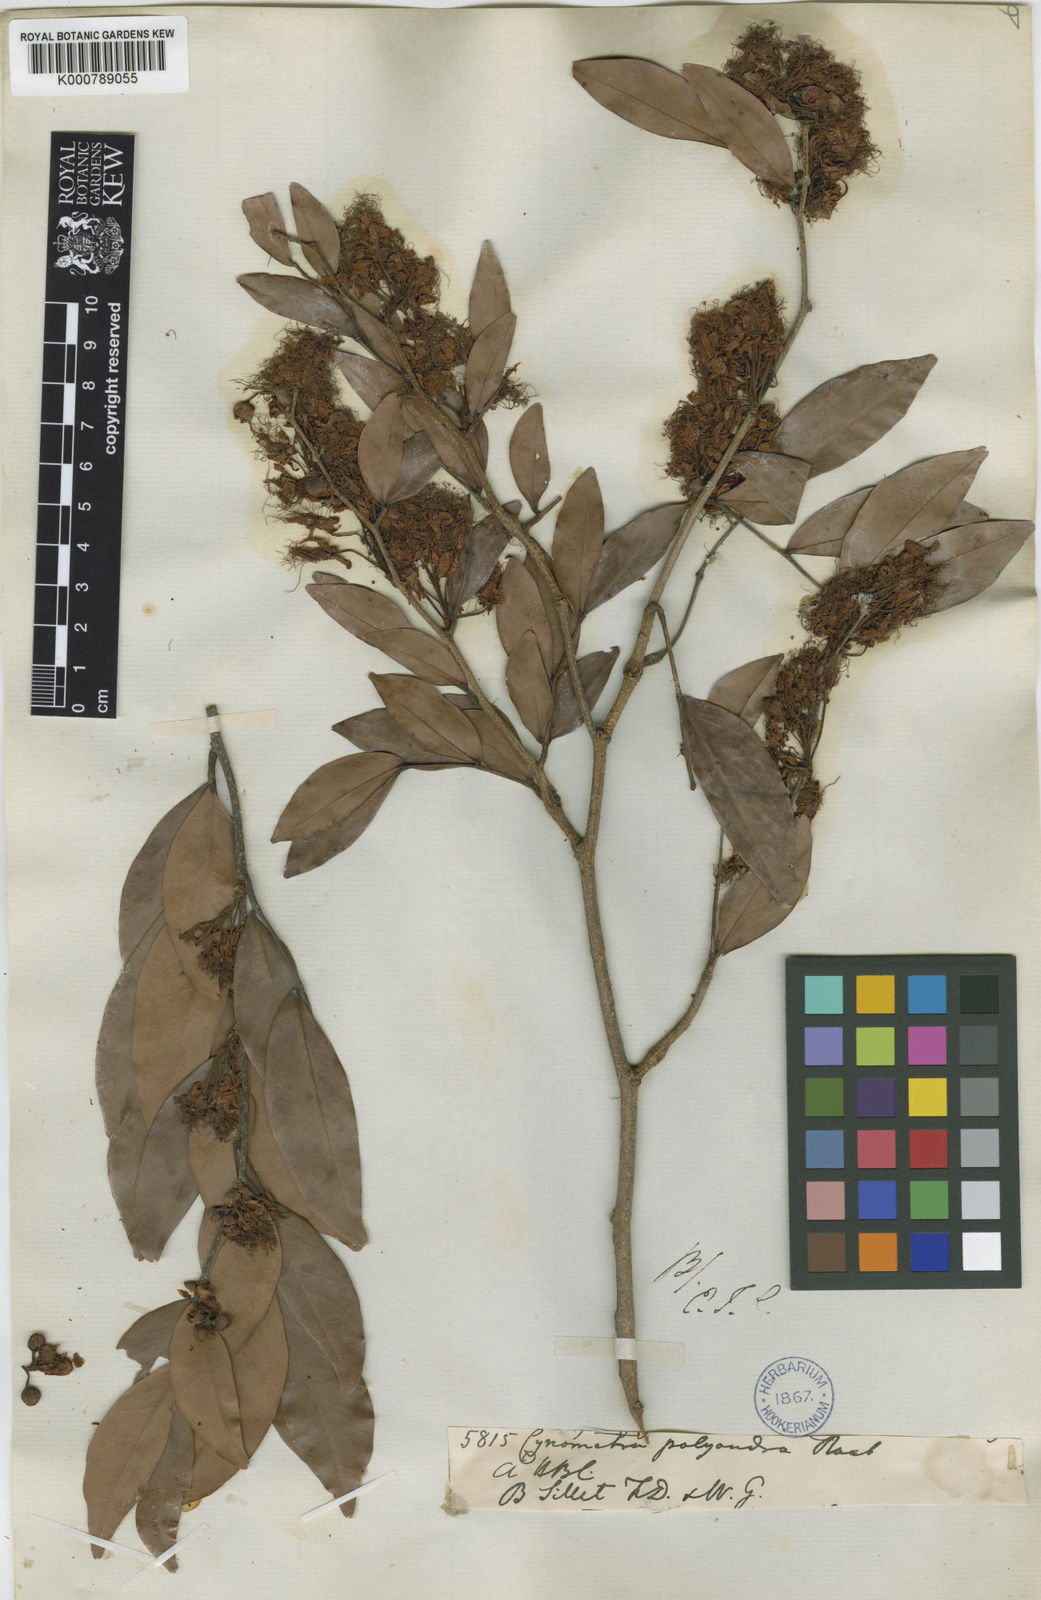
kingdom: Plantae
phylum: Tracheophyta
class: Magnoliopsida
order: Fabales
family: Fabaceae
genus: Cynometra
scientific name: Cynometra polyandra
